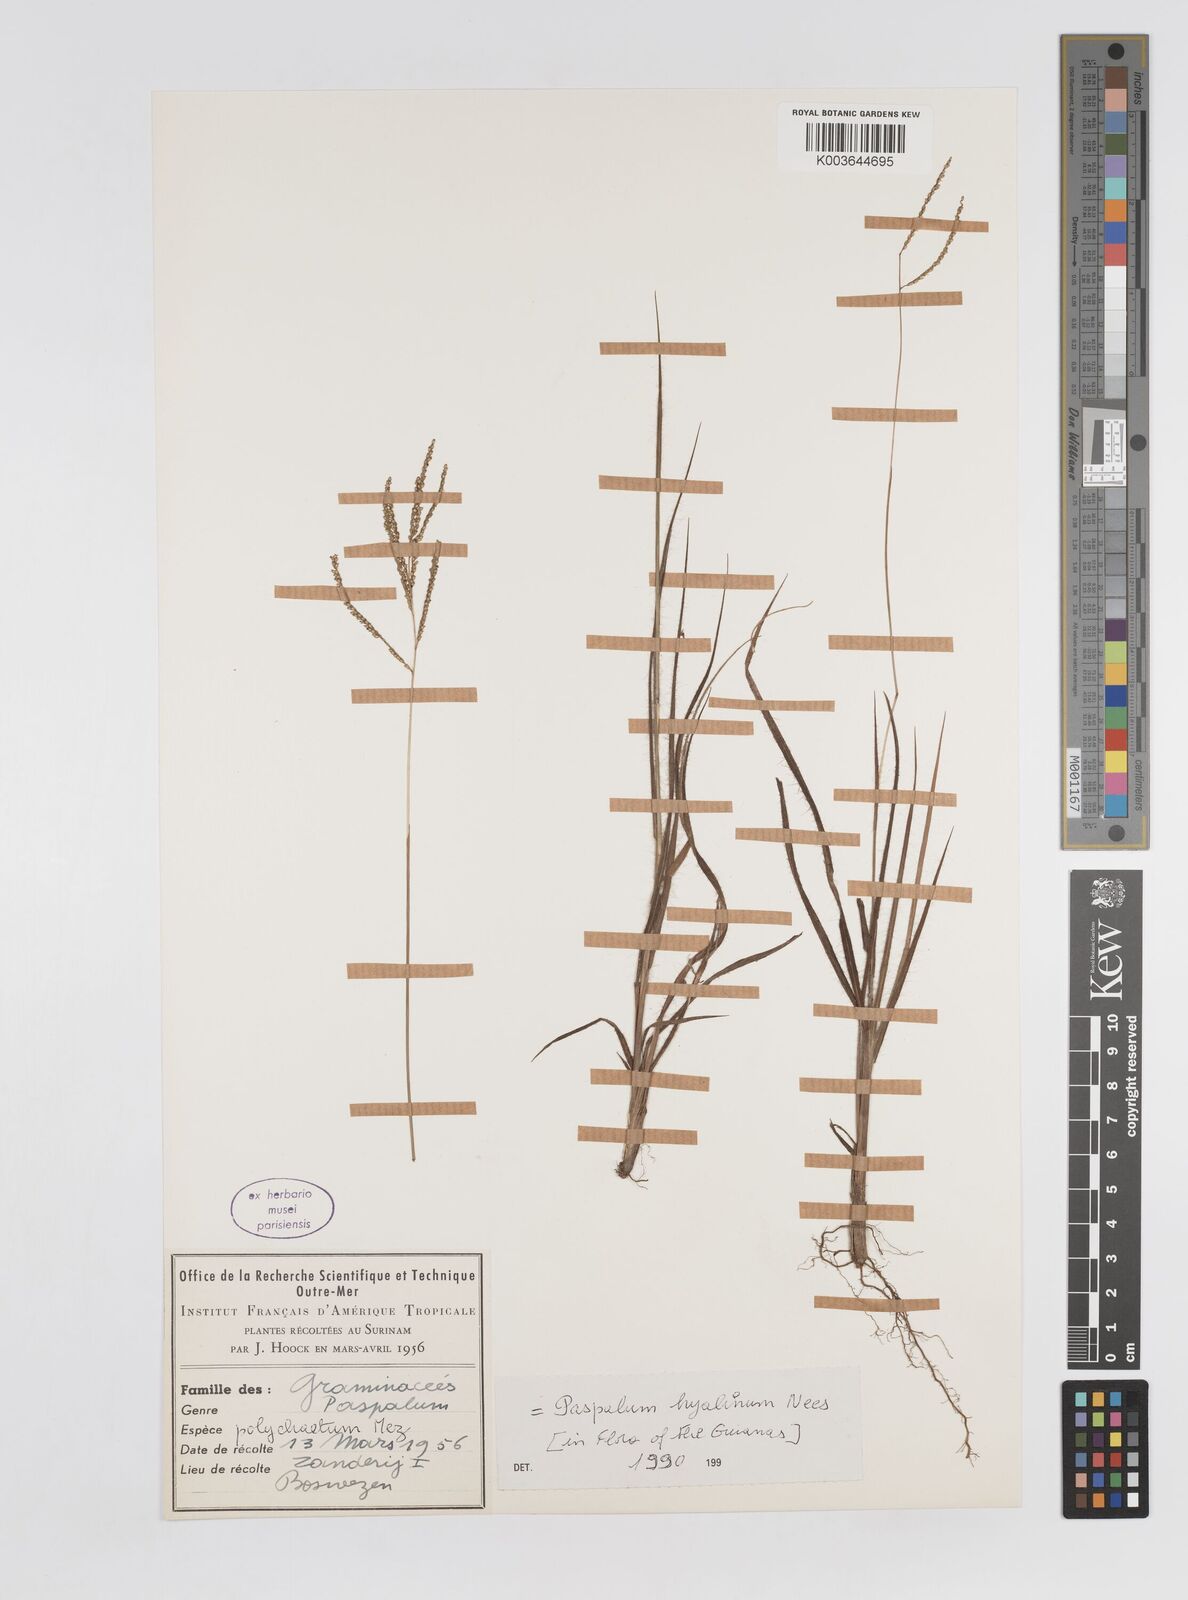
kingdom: Plantae
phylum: Tracheophyta
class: Liliopsida
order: Poales
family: Poaceae
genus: Paspalum
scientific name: Paspalum hyalinum
